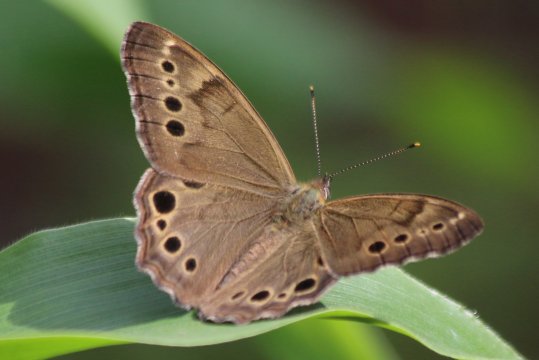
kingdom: Animalia
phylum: Arthropoda
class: Insecta
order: Lepidoptera
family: Nymphalidae
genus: Lethe
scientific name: Lethe anthedon
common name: Northern Pearly-Eye
